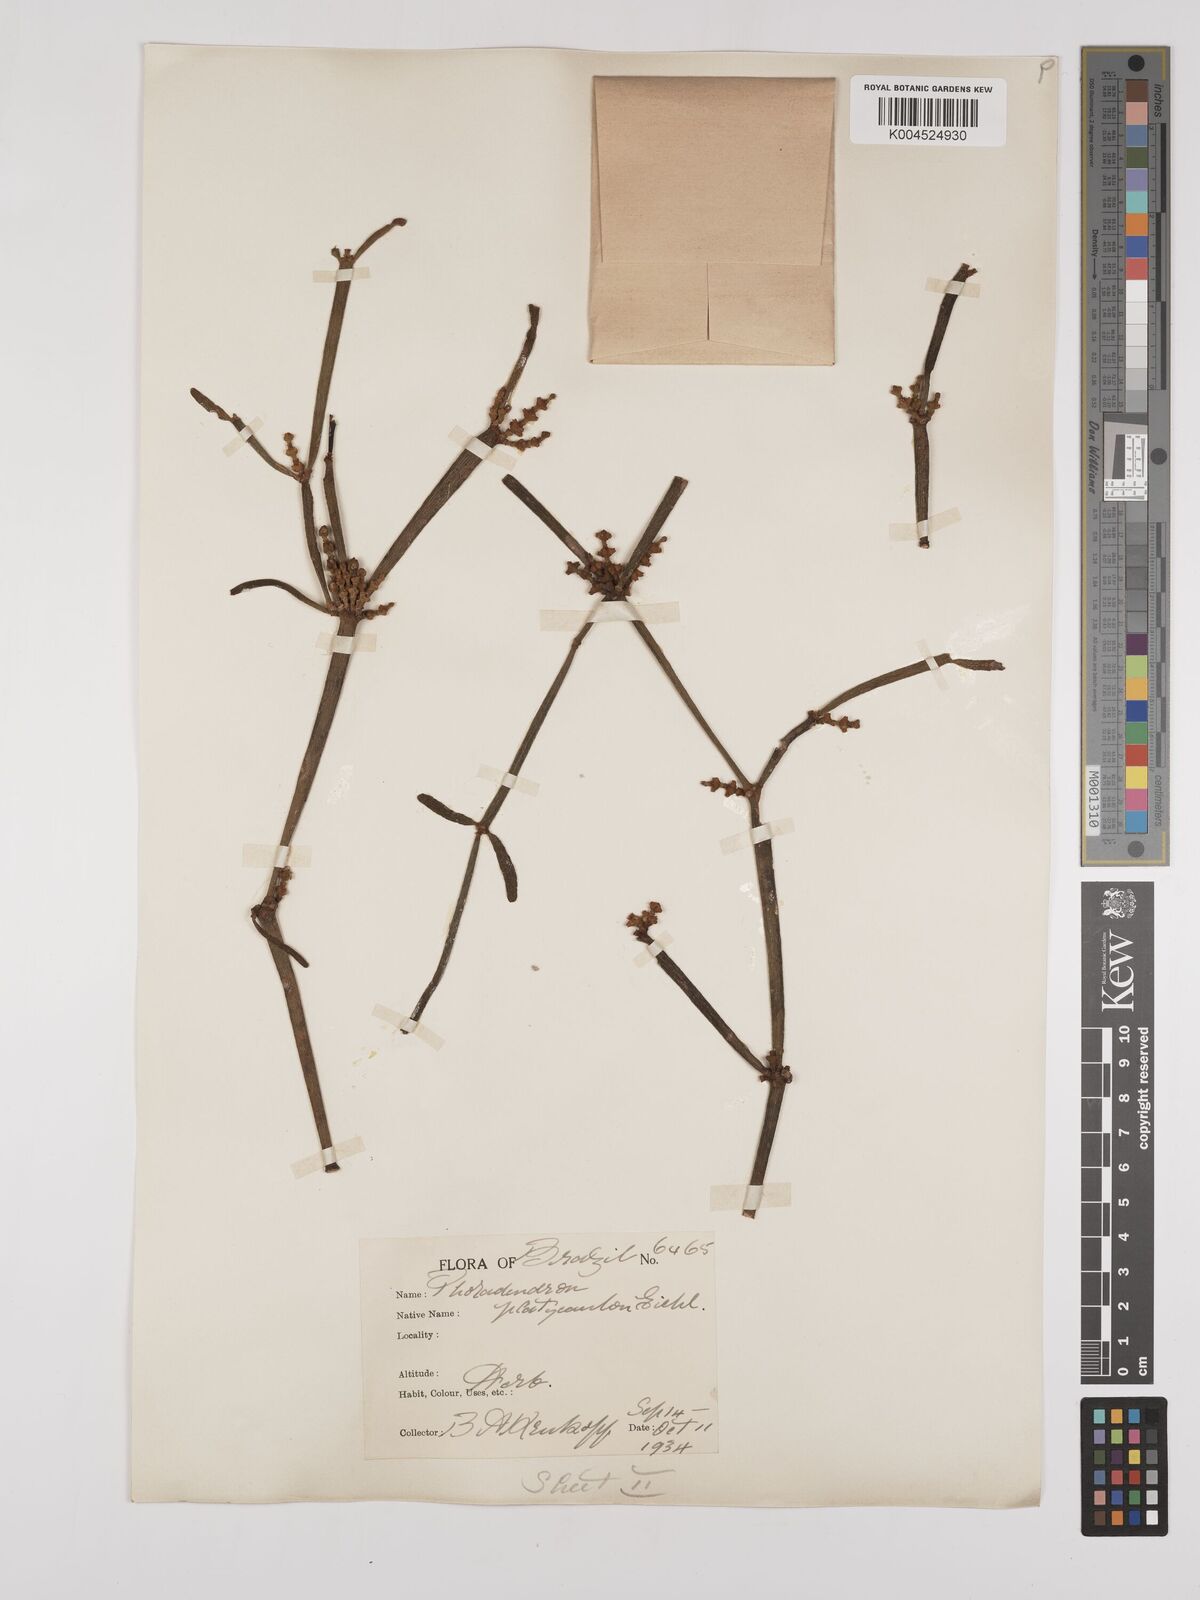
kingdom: Plantae
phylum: Tracheophyta
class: Magnoliopsida
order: Santalales
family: Viscaceae
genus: Phoradendron
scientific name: Phoradendron planiphyllum
